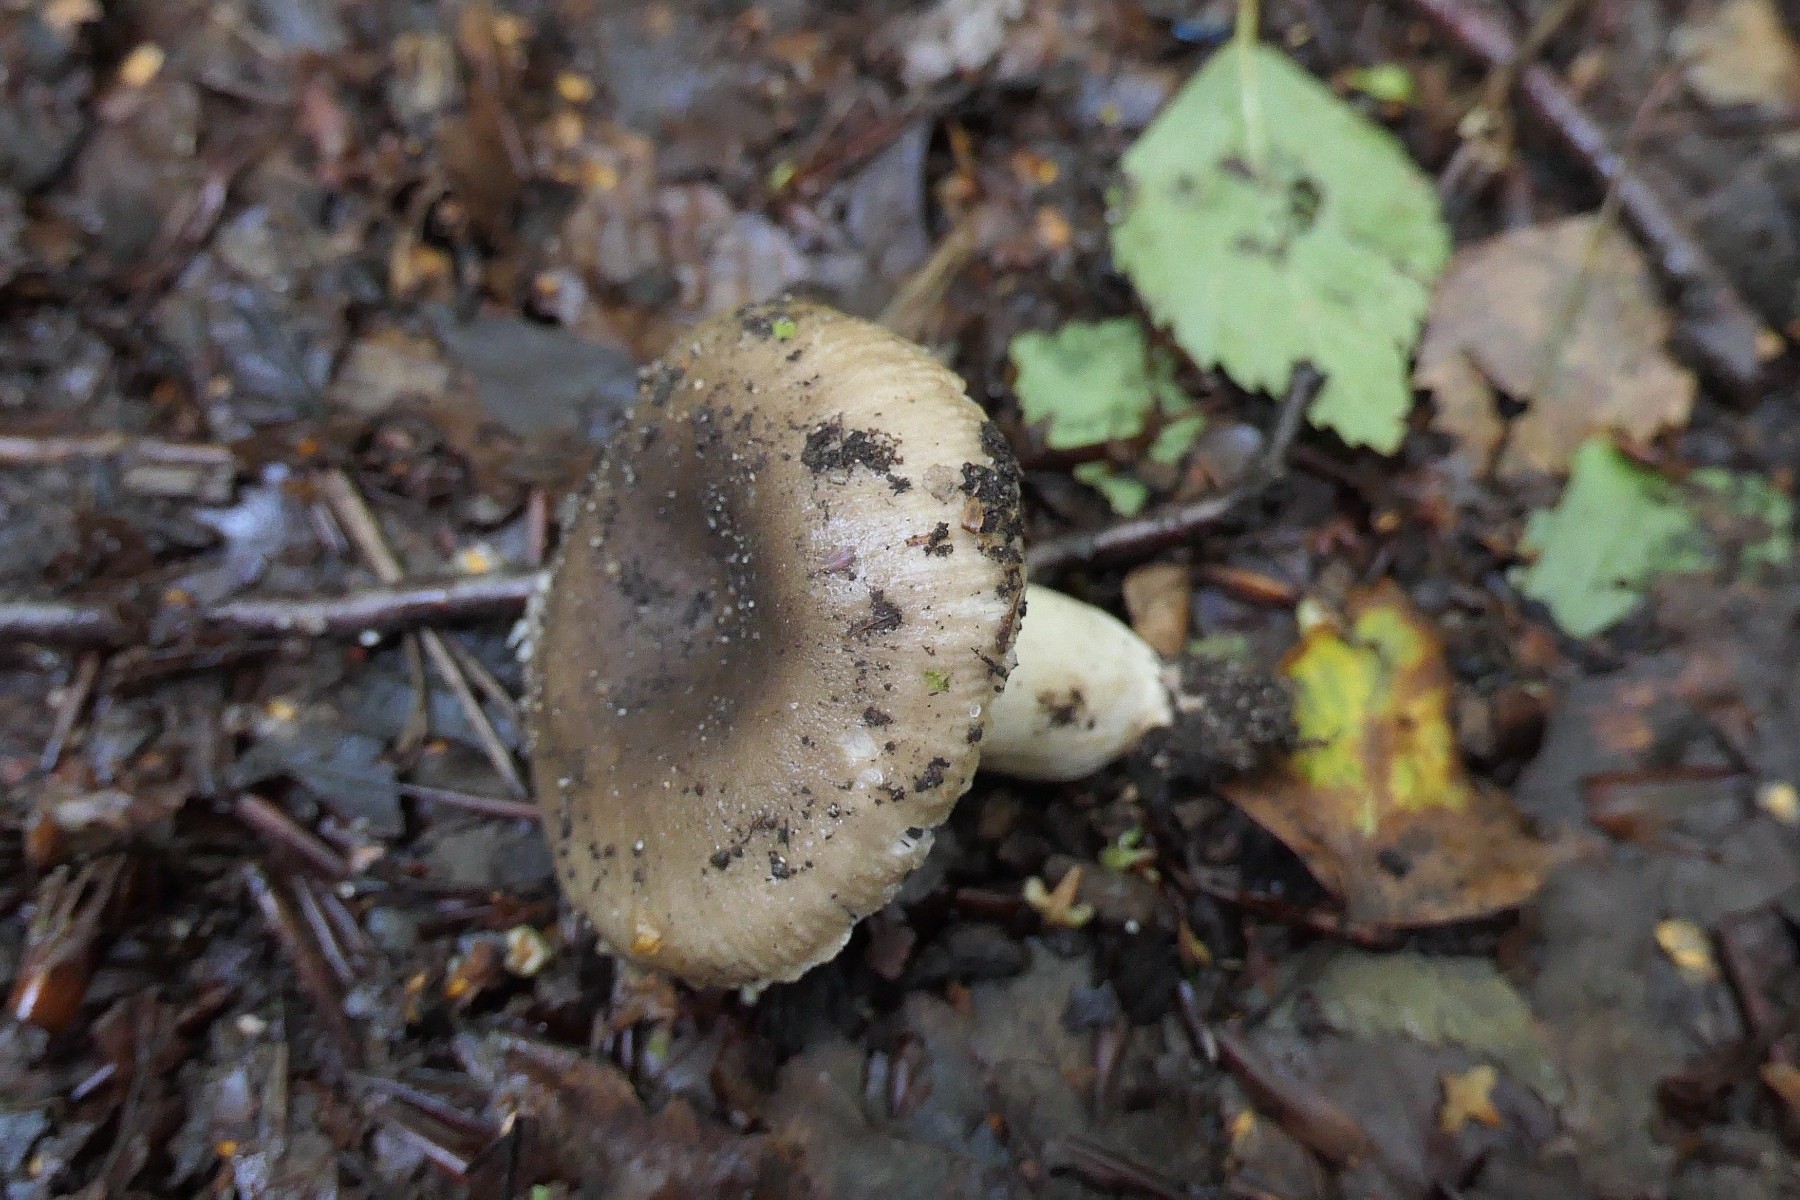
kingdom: Fungi
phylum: Basidiomycota
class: Agaricomycetes
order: Russulales
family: Russulaceae
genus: Russula
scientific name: Russula amoenolens
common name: skarp kam-skørhat
